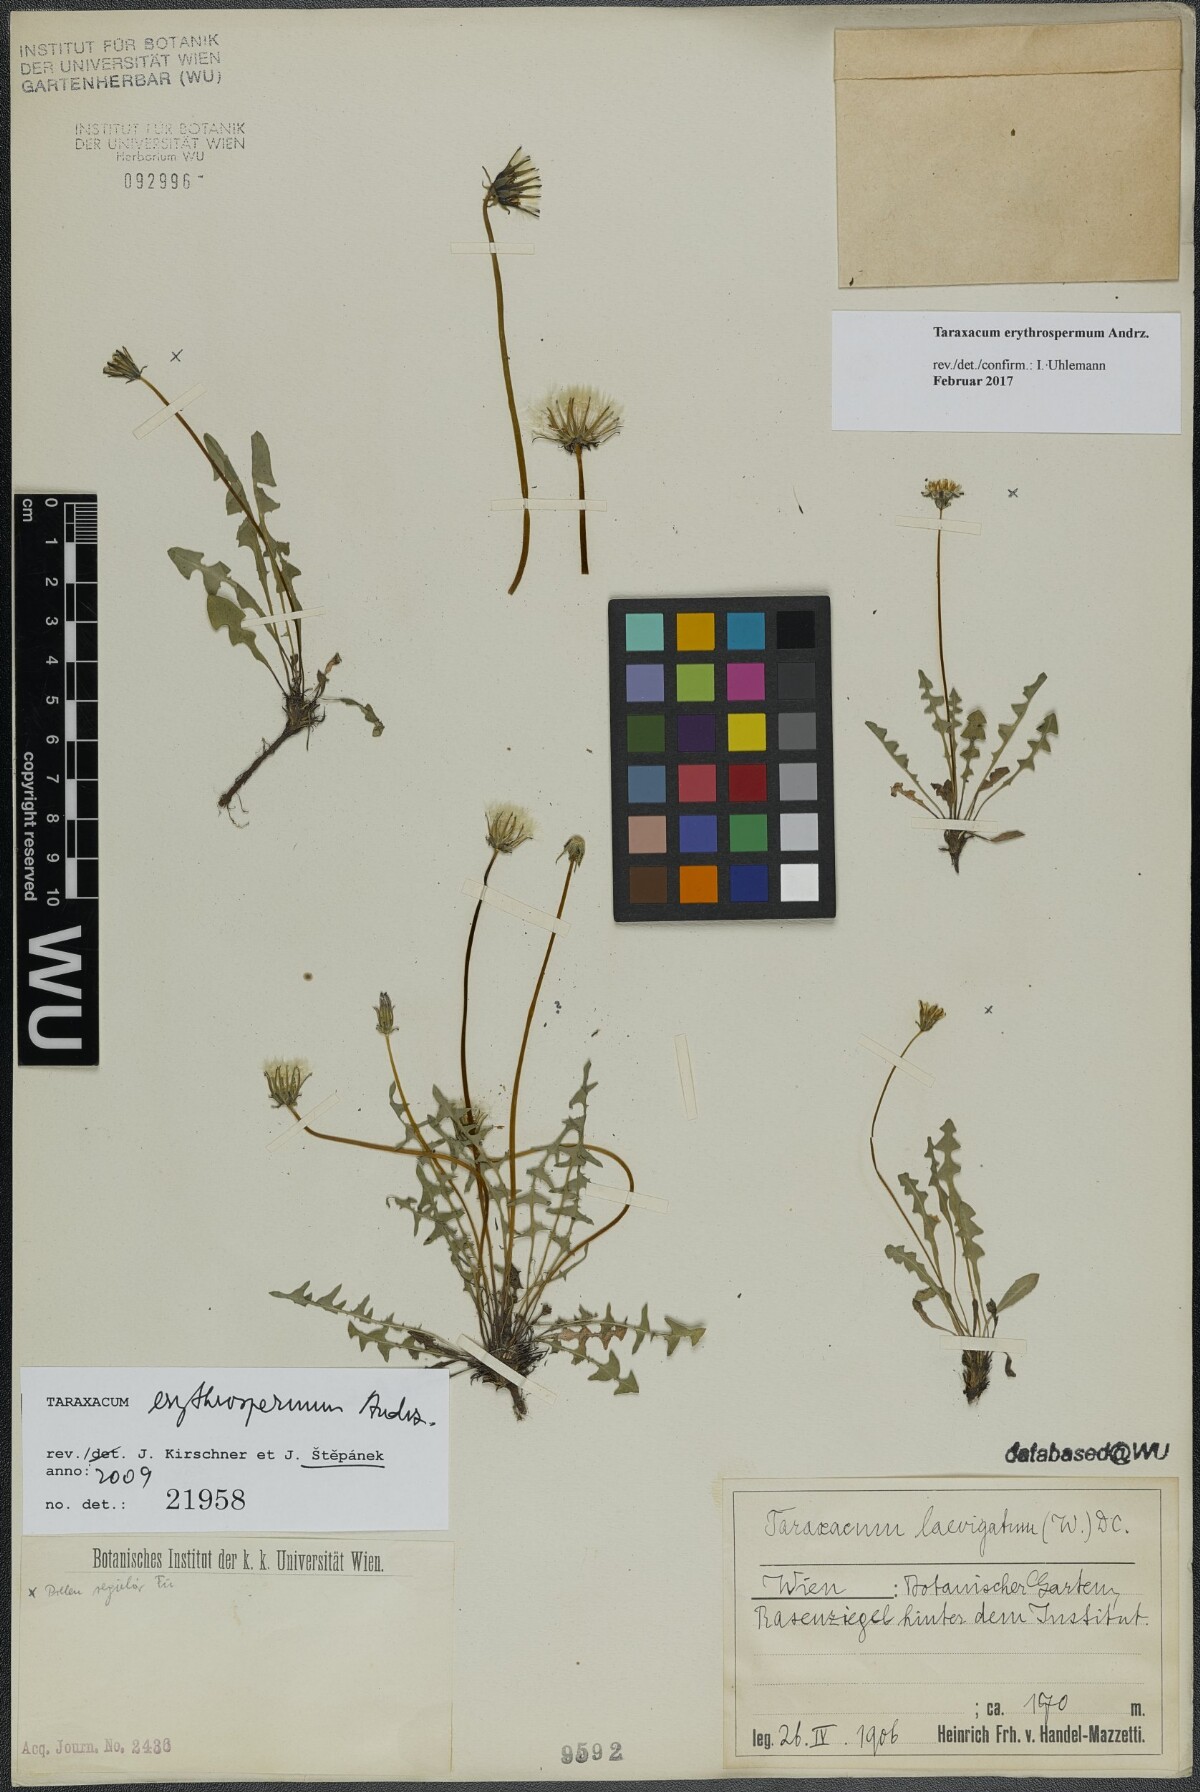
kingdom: Plantae
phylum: Tracheophyta
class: Magnoliopsida
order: Asterales
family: Asteraceae
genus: Taraxacum
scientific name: Taraxacum erythrospermum
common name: Rock dandelion
